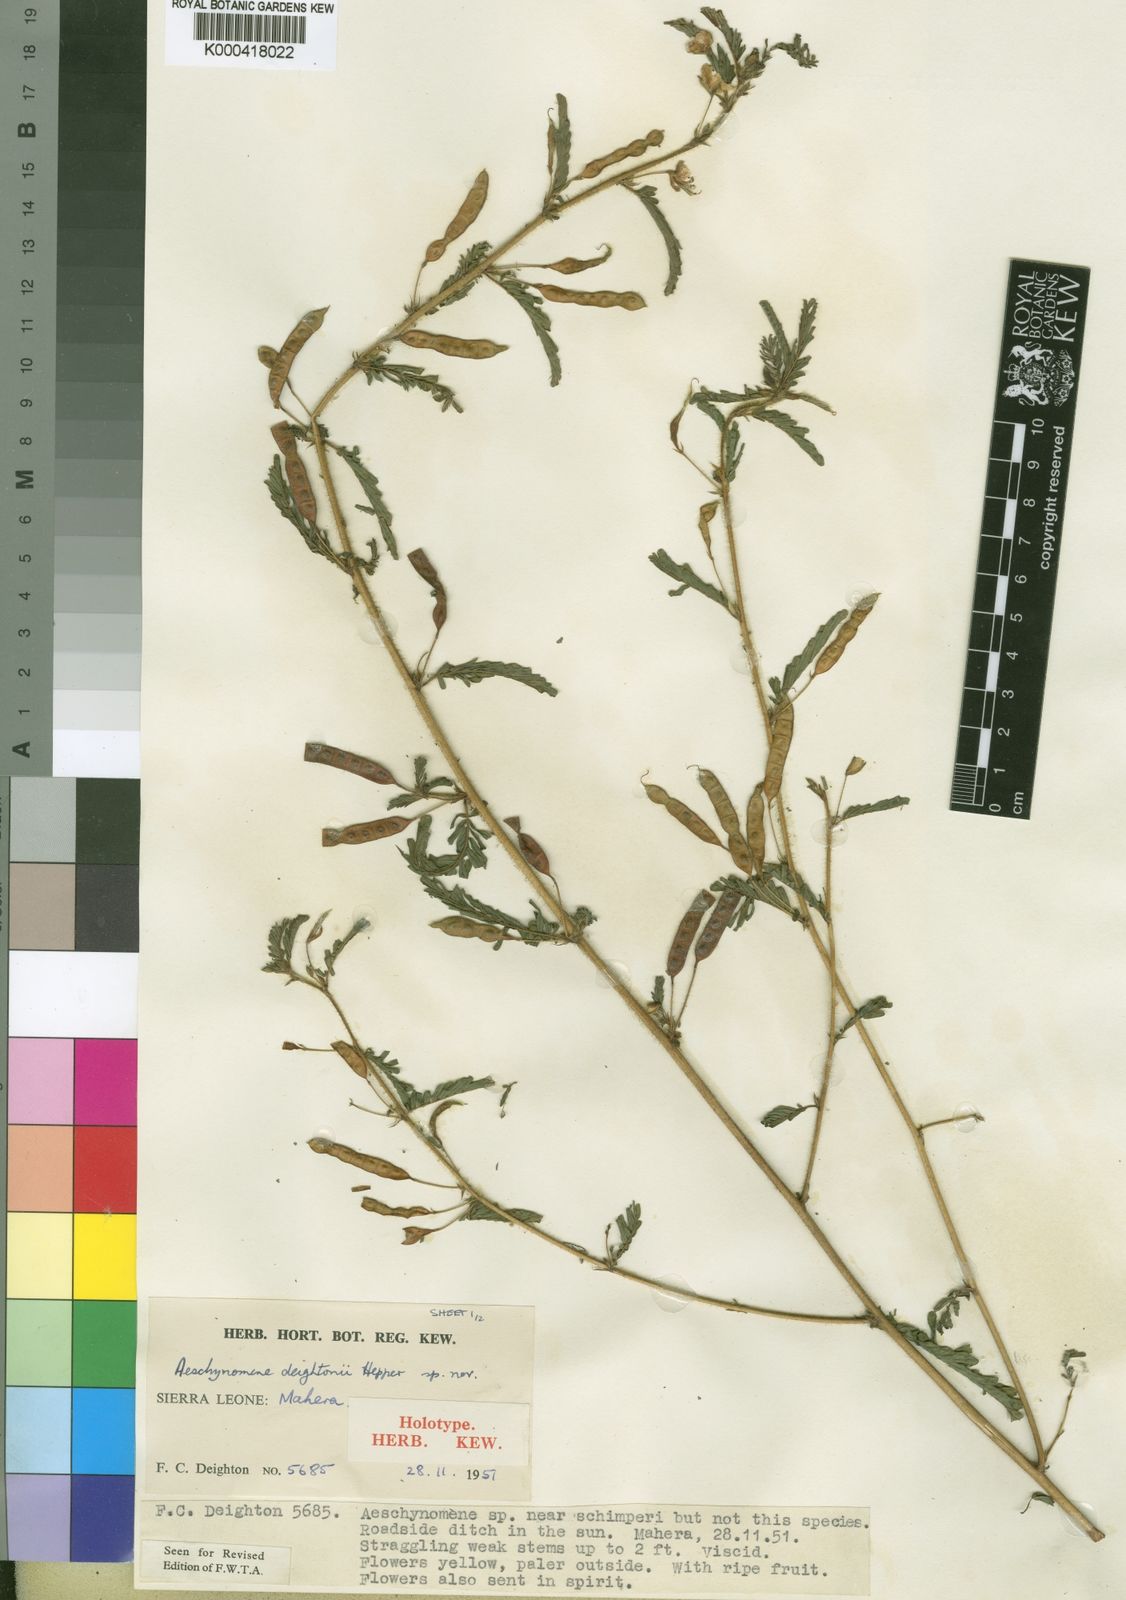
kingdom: Plantae
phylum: Tracheophyta
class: Magnoliopsida
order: Fabales
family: Fabaceae
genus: Aeschynomene
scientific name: Aeschynomene deightonii
